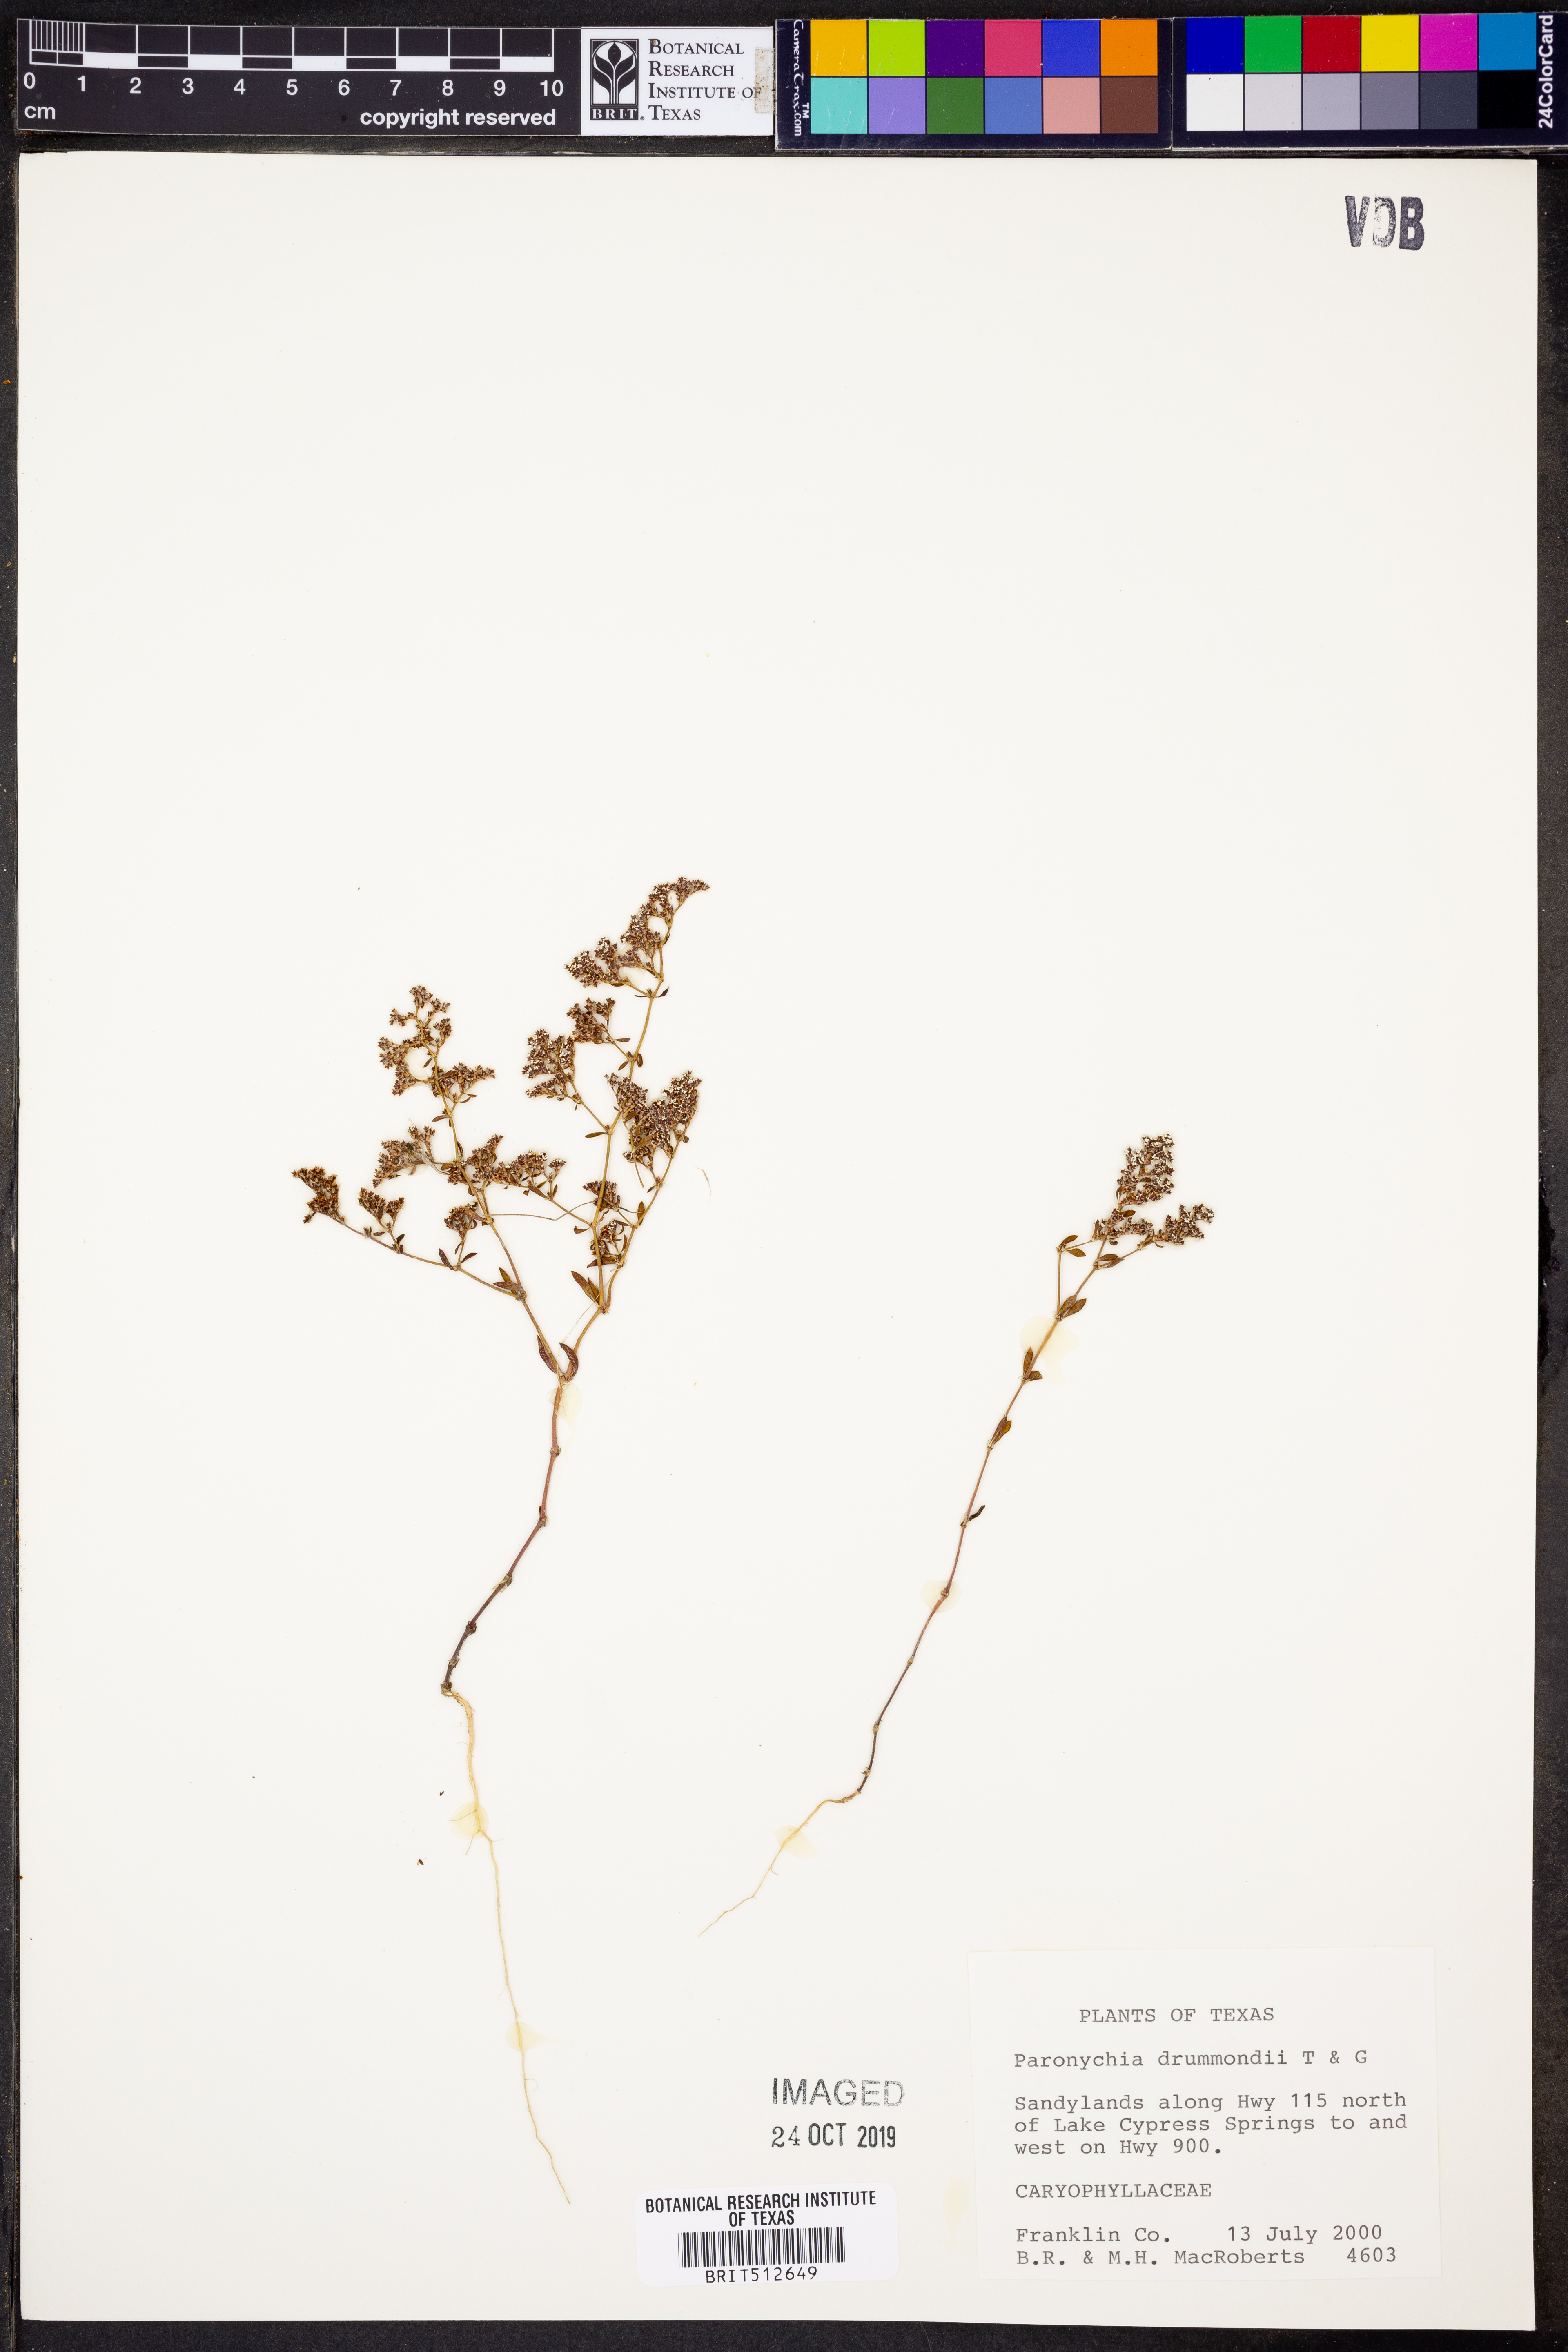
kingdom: Plantae
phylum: Tracheophyta
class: Magnoliopsida
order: Caryophyllales
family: Caryophyllaceae
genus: Paronychia
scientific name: Paronychia drummondii
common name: Drummond's nailwort
